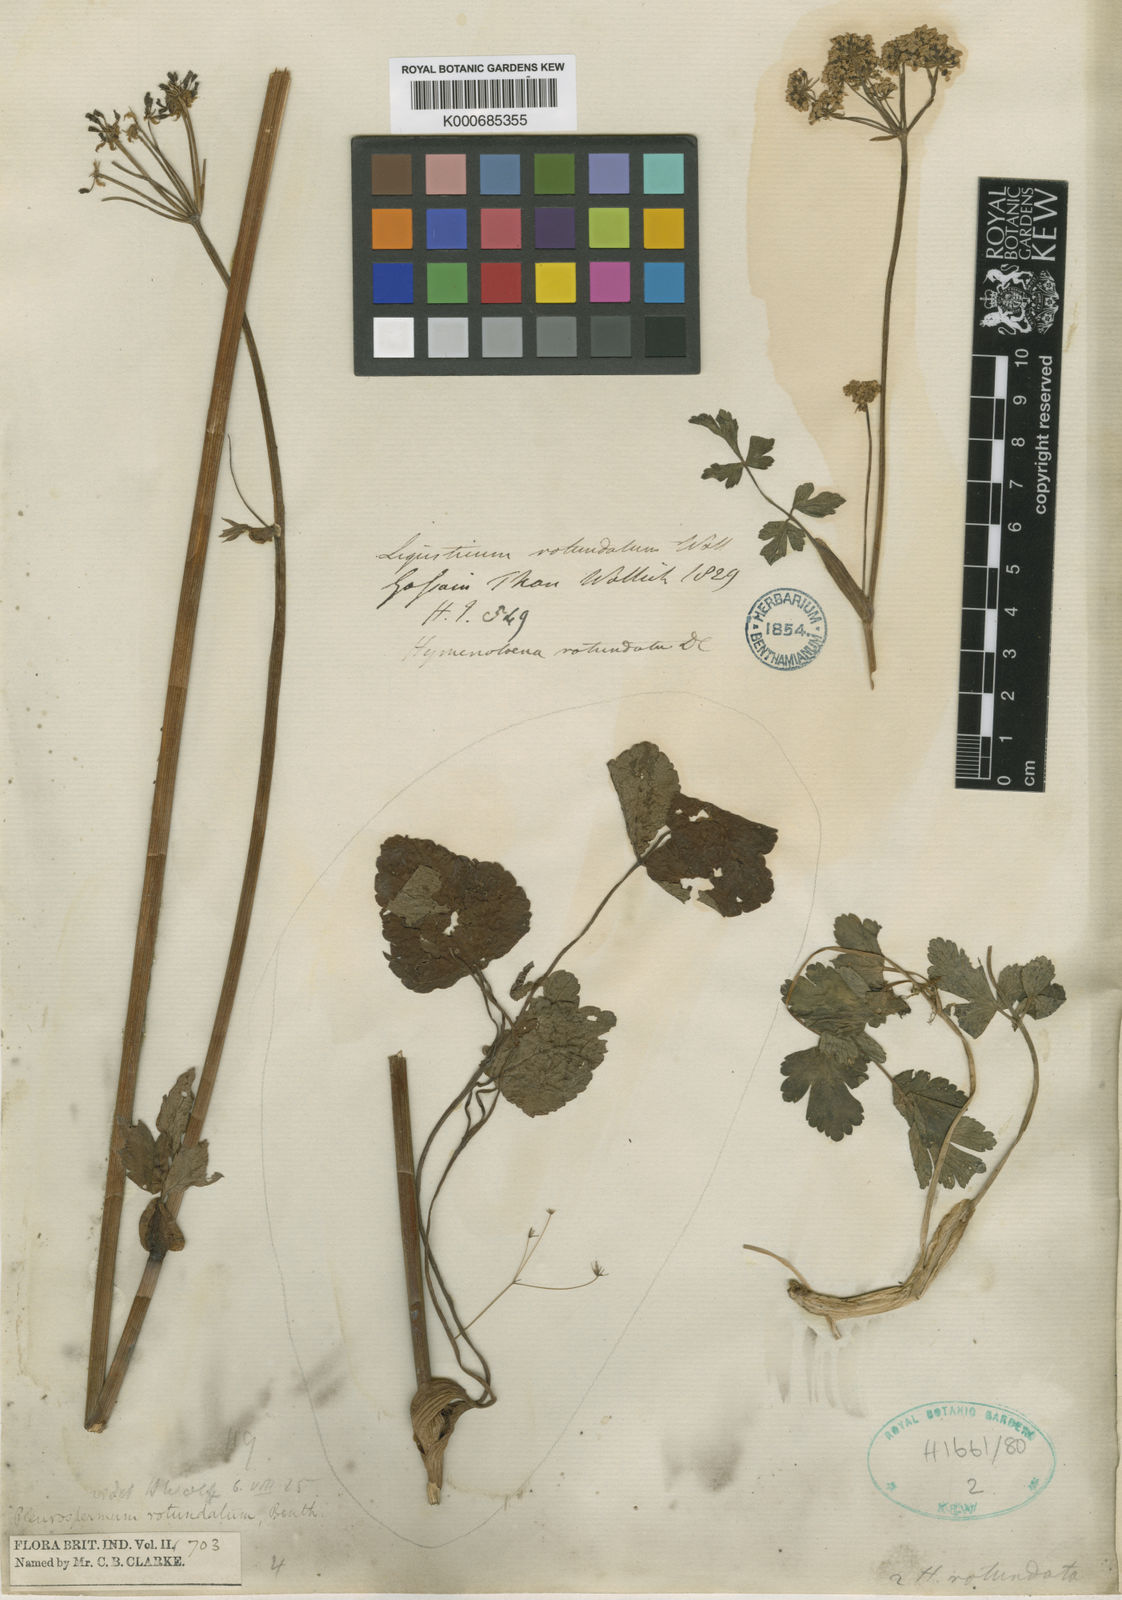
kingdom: Plantae
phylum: Tracheophyta
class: Magnoliopsida
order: Apiales
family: Apiaceae
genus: Pterocyclus
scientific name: Pterocyclus
